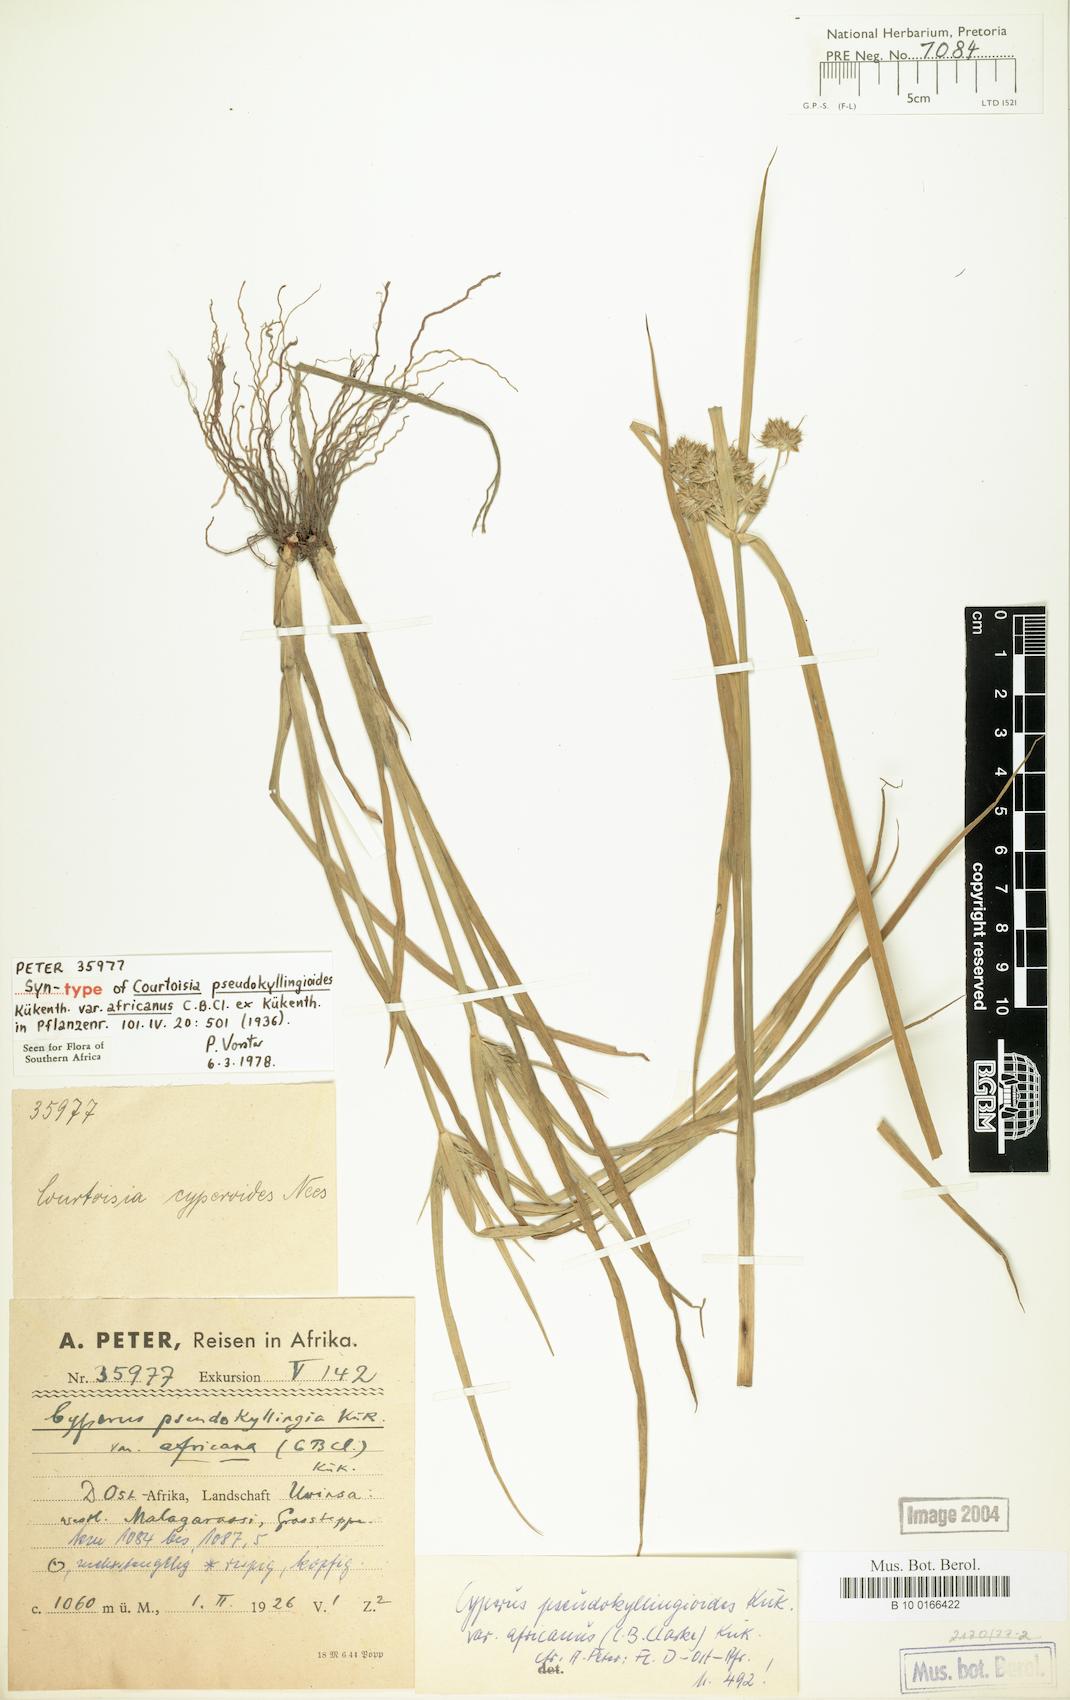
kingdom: Plantae
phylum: Tracheophyta
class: Liliopsida
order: Poales
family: Cyperaceae
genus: Cyperus
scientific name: Cyperus pseudokyllingioides
